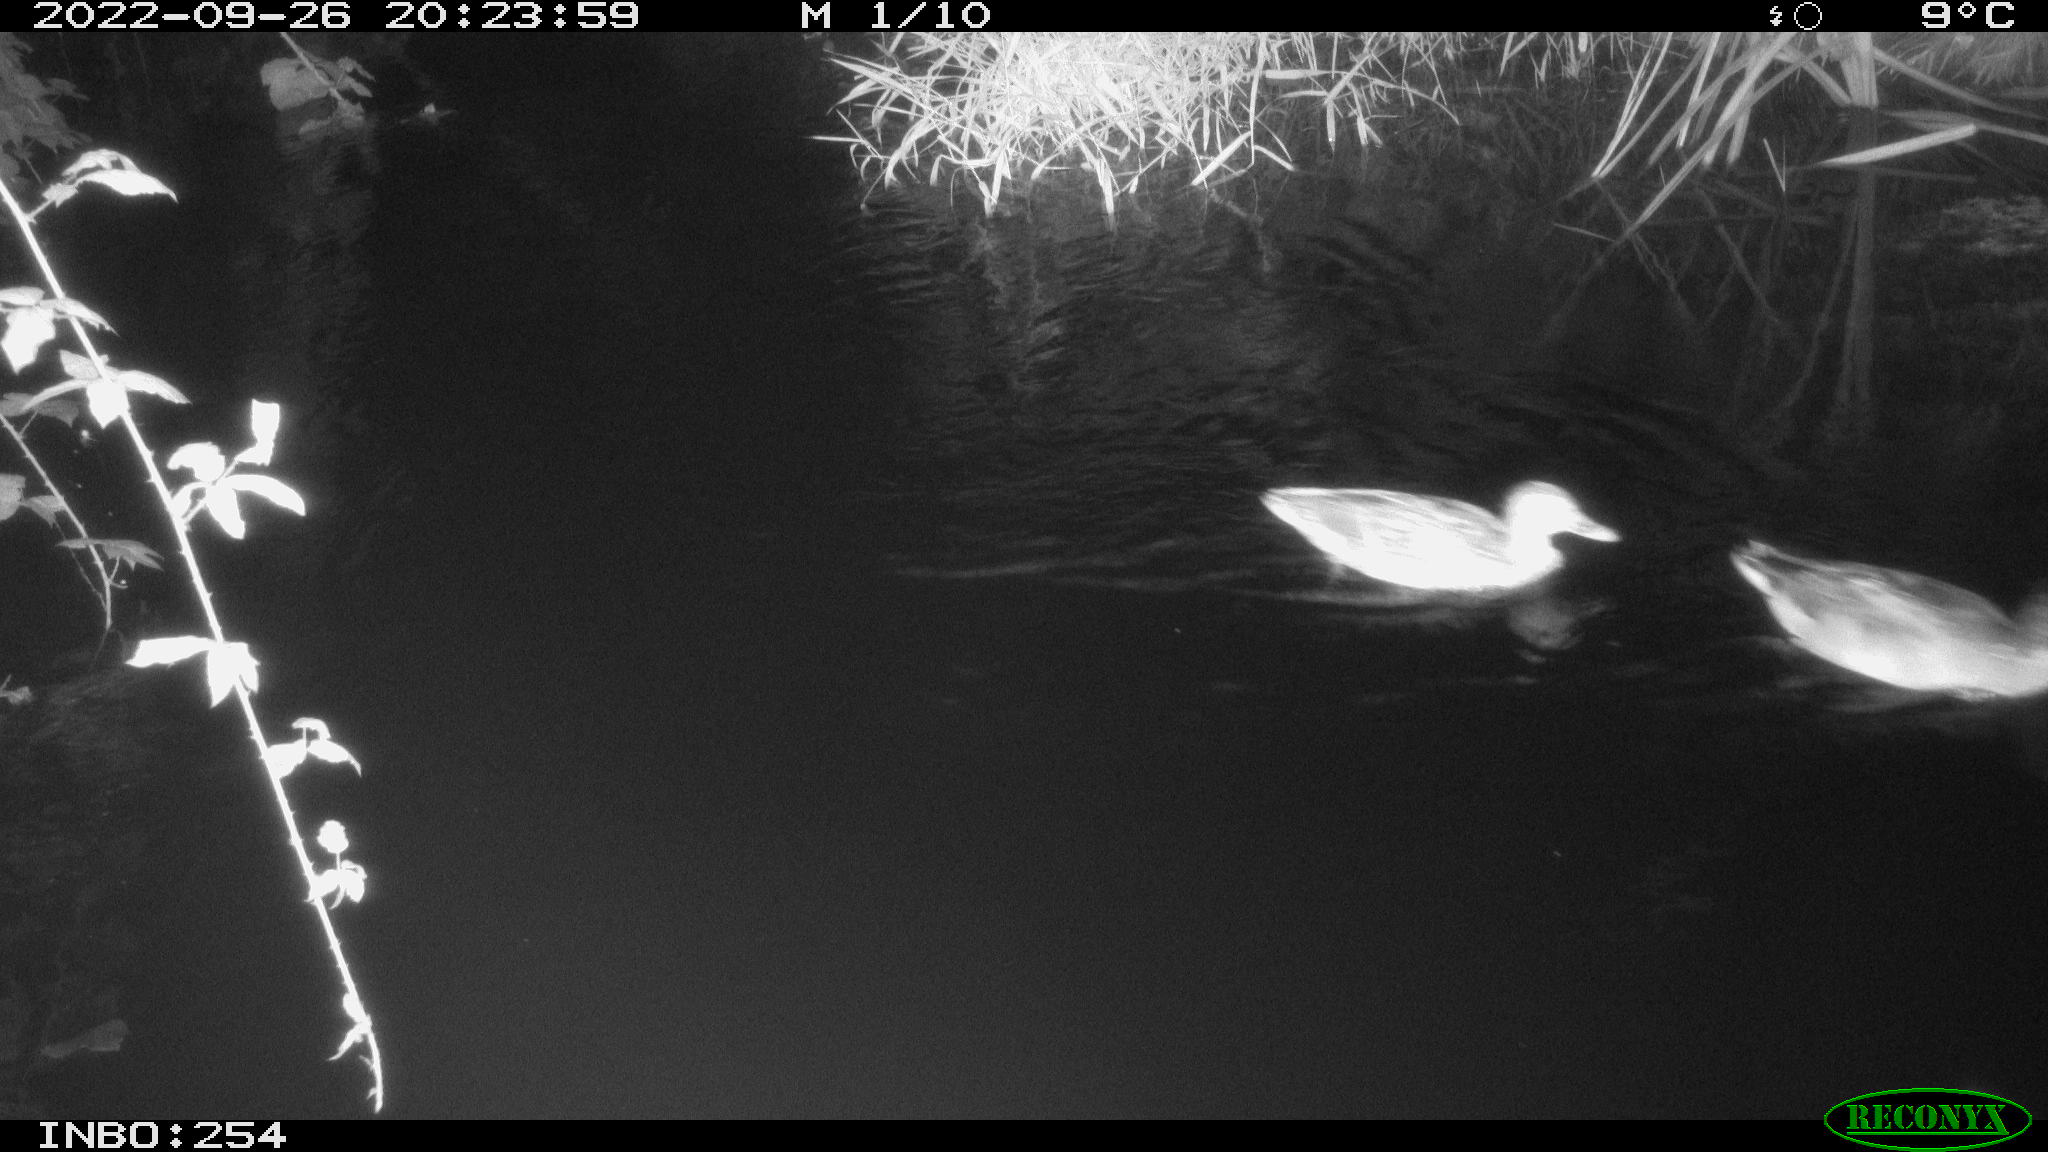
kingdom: Animalia
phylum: Chordata
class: Aves
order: Anseriformes
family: Anatidae
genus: Anas
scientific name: Anas
